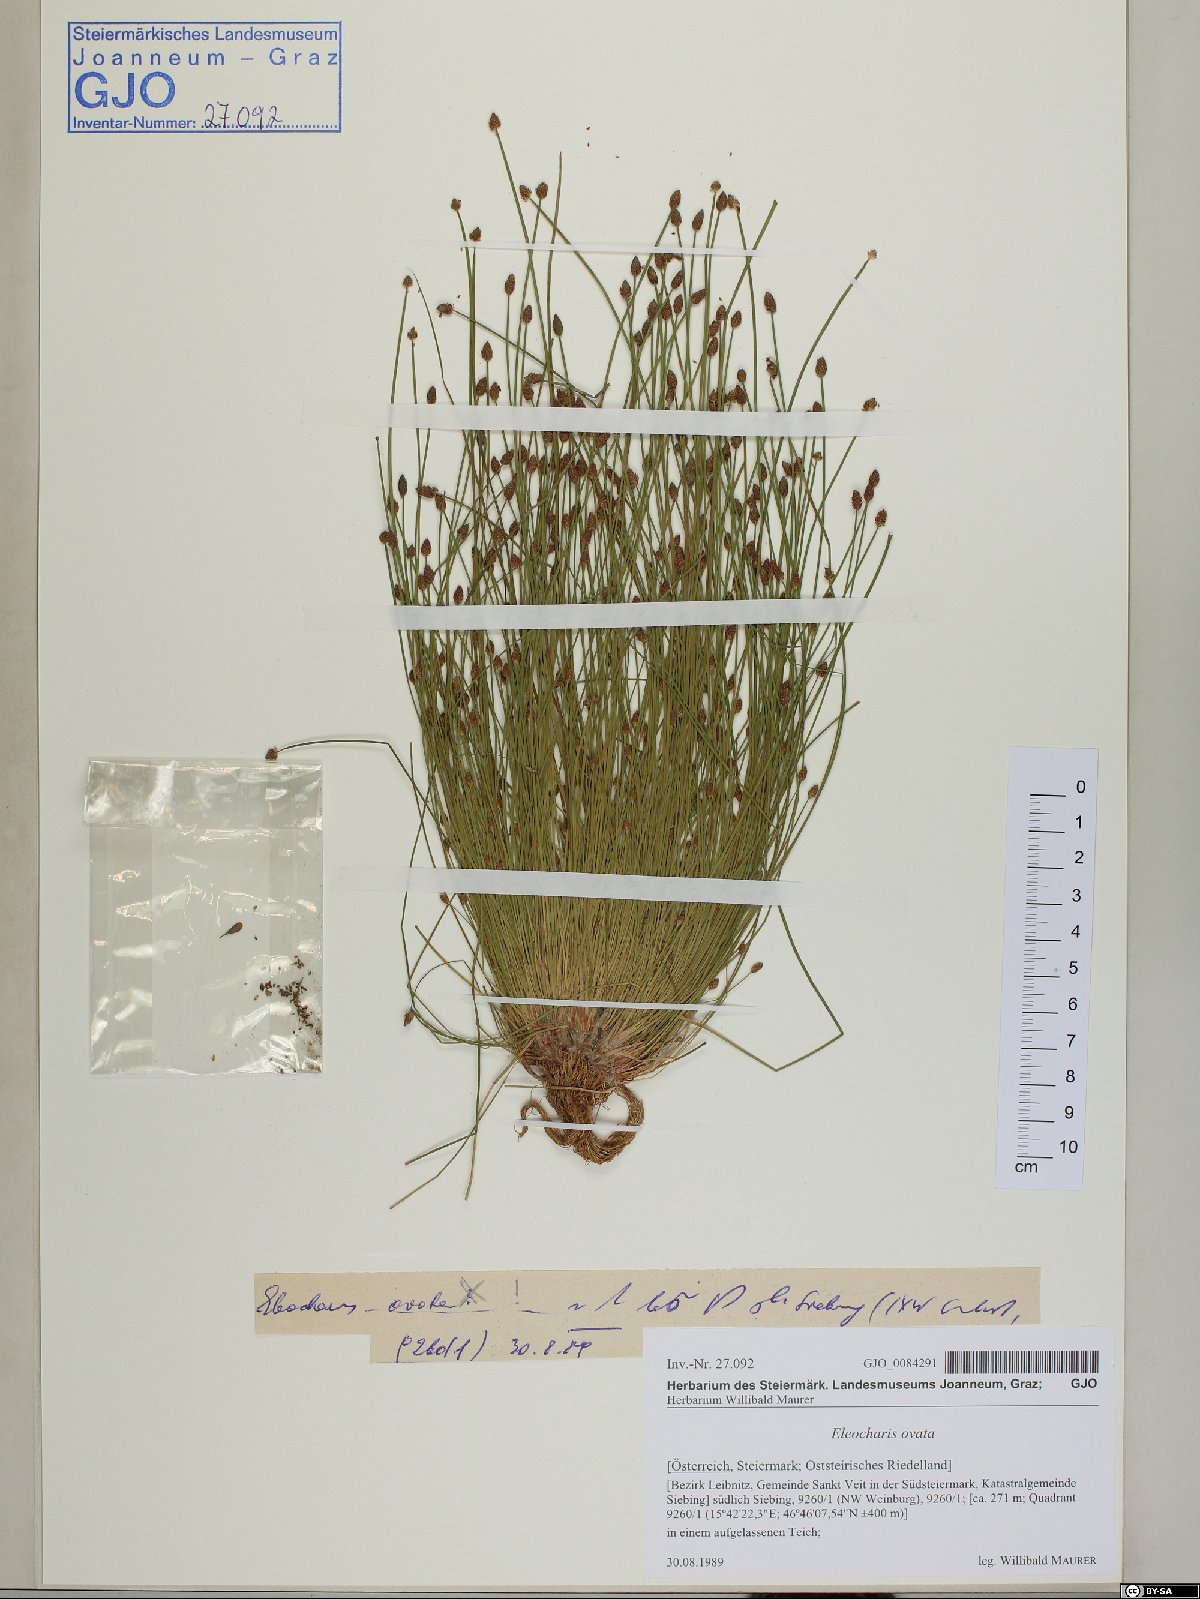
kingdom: Plantae
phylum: Tracheophyta
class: Liliopsida
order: Poales
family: Cyperaceae
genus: Eleocharis
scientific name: Eleocharis ovata
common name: Oval spike-rush
